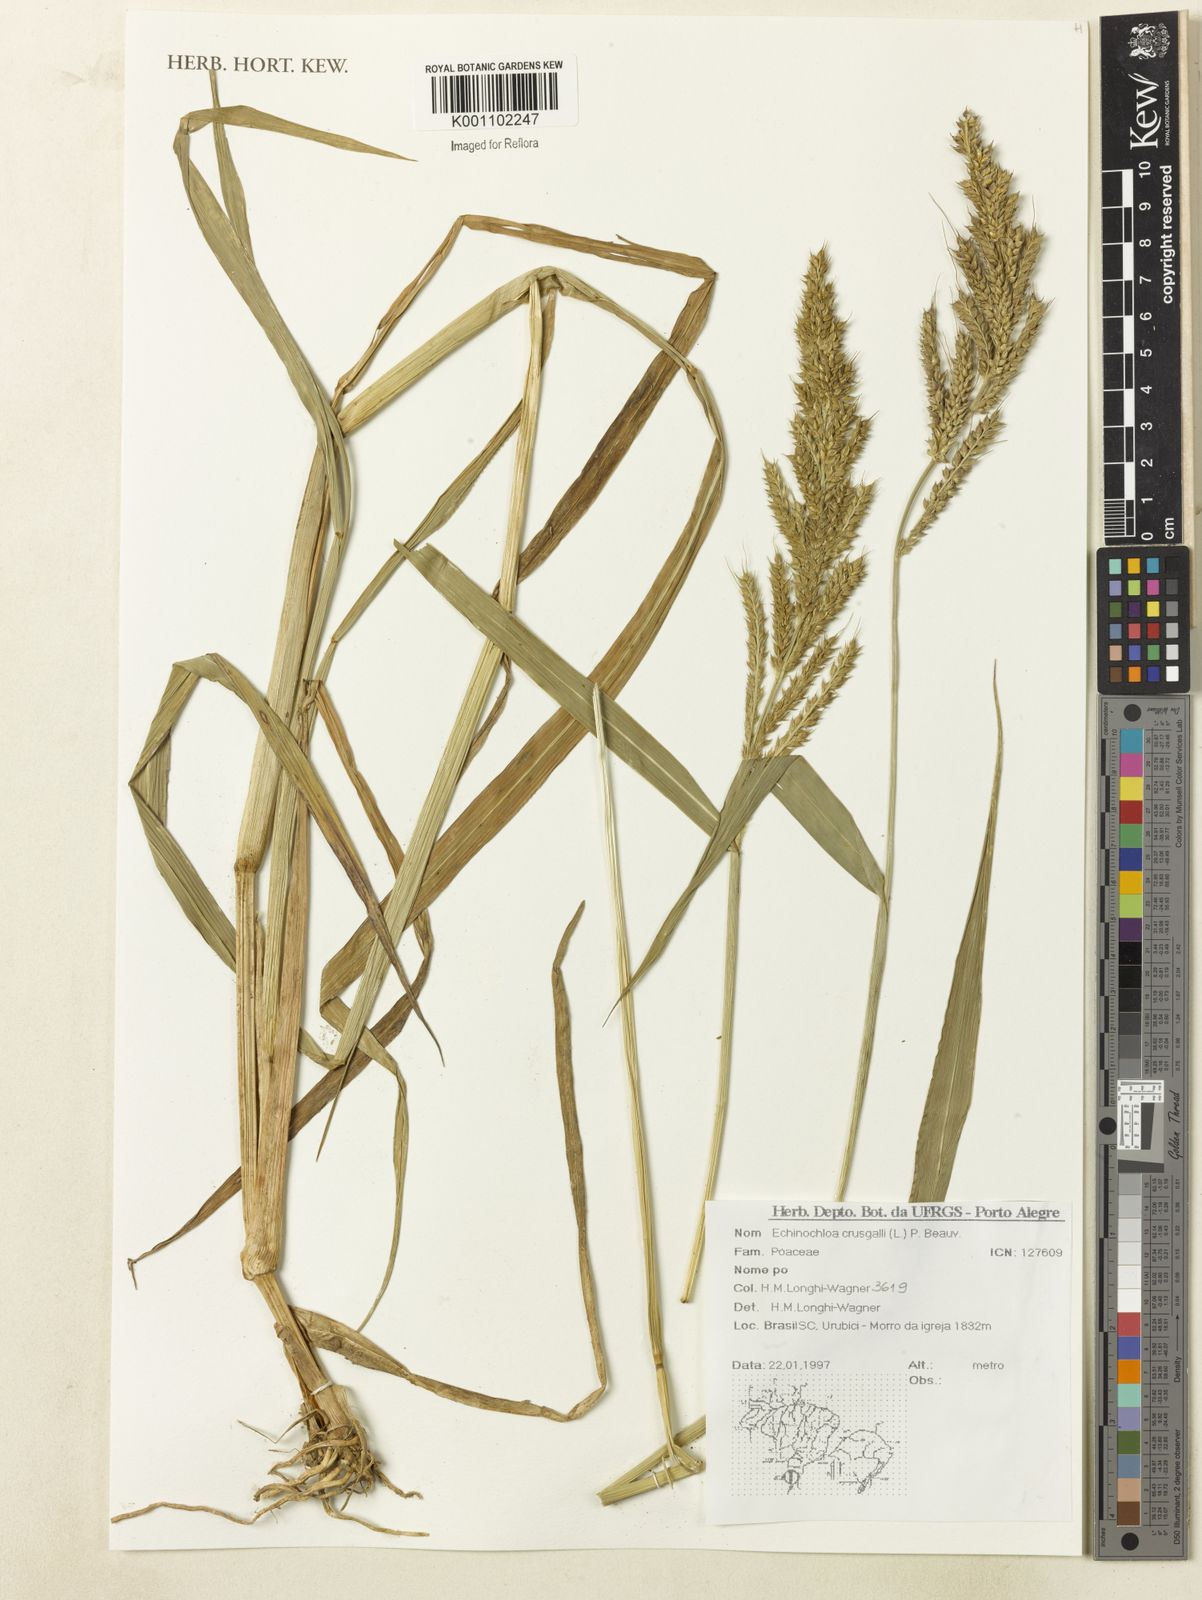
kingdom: Plantae
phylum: Tracheophyta
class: Liliopsida
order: Poales
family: Poaceae
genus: Echinochloa
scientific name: Echinochloa crus-galli
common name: Cockspur
